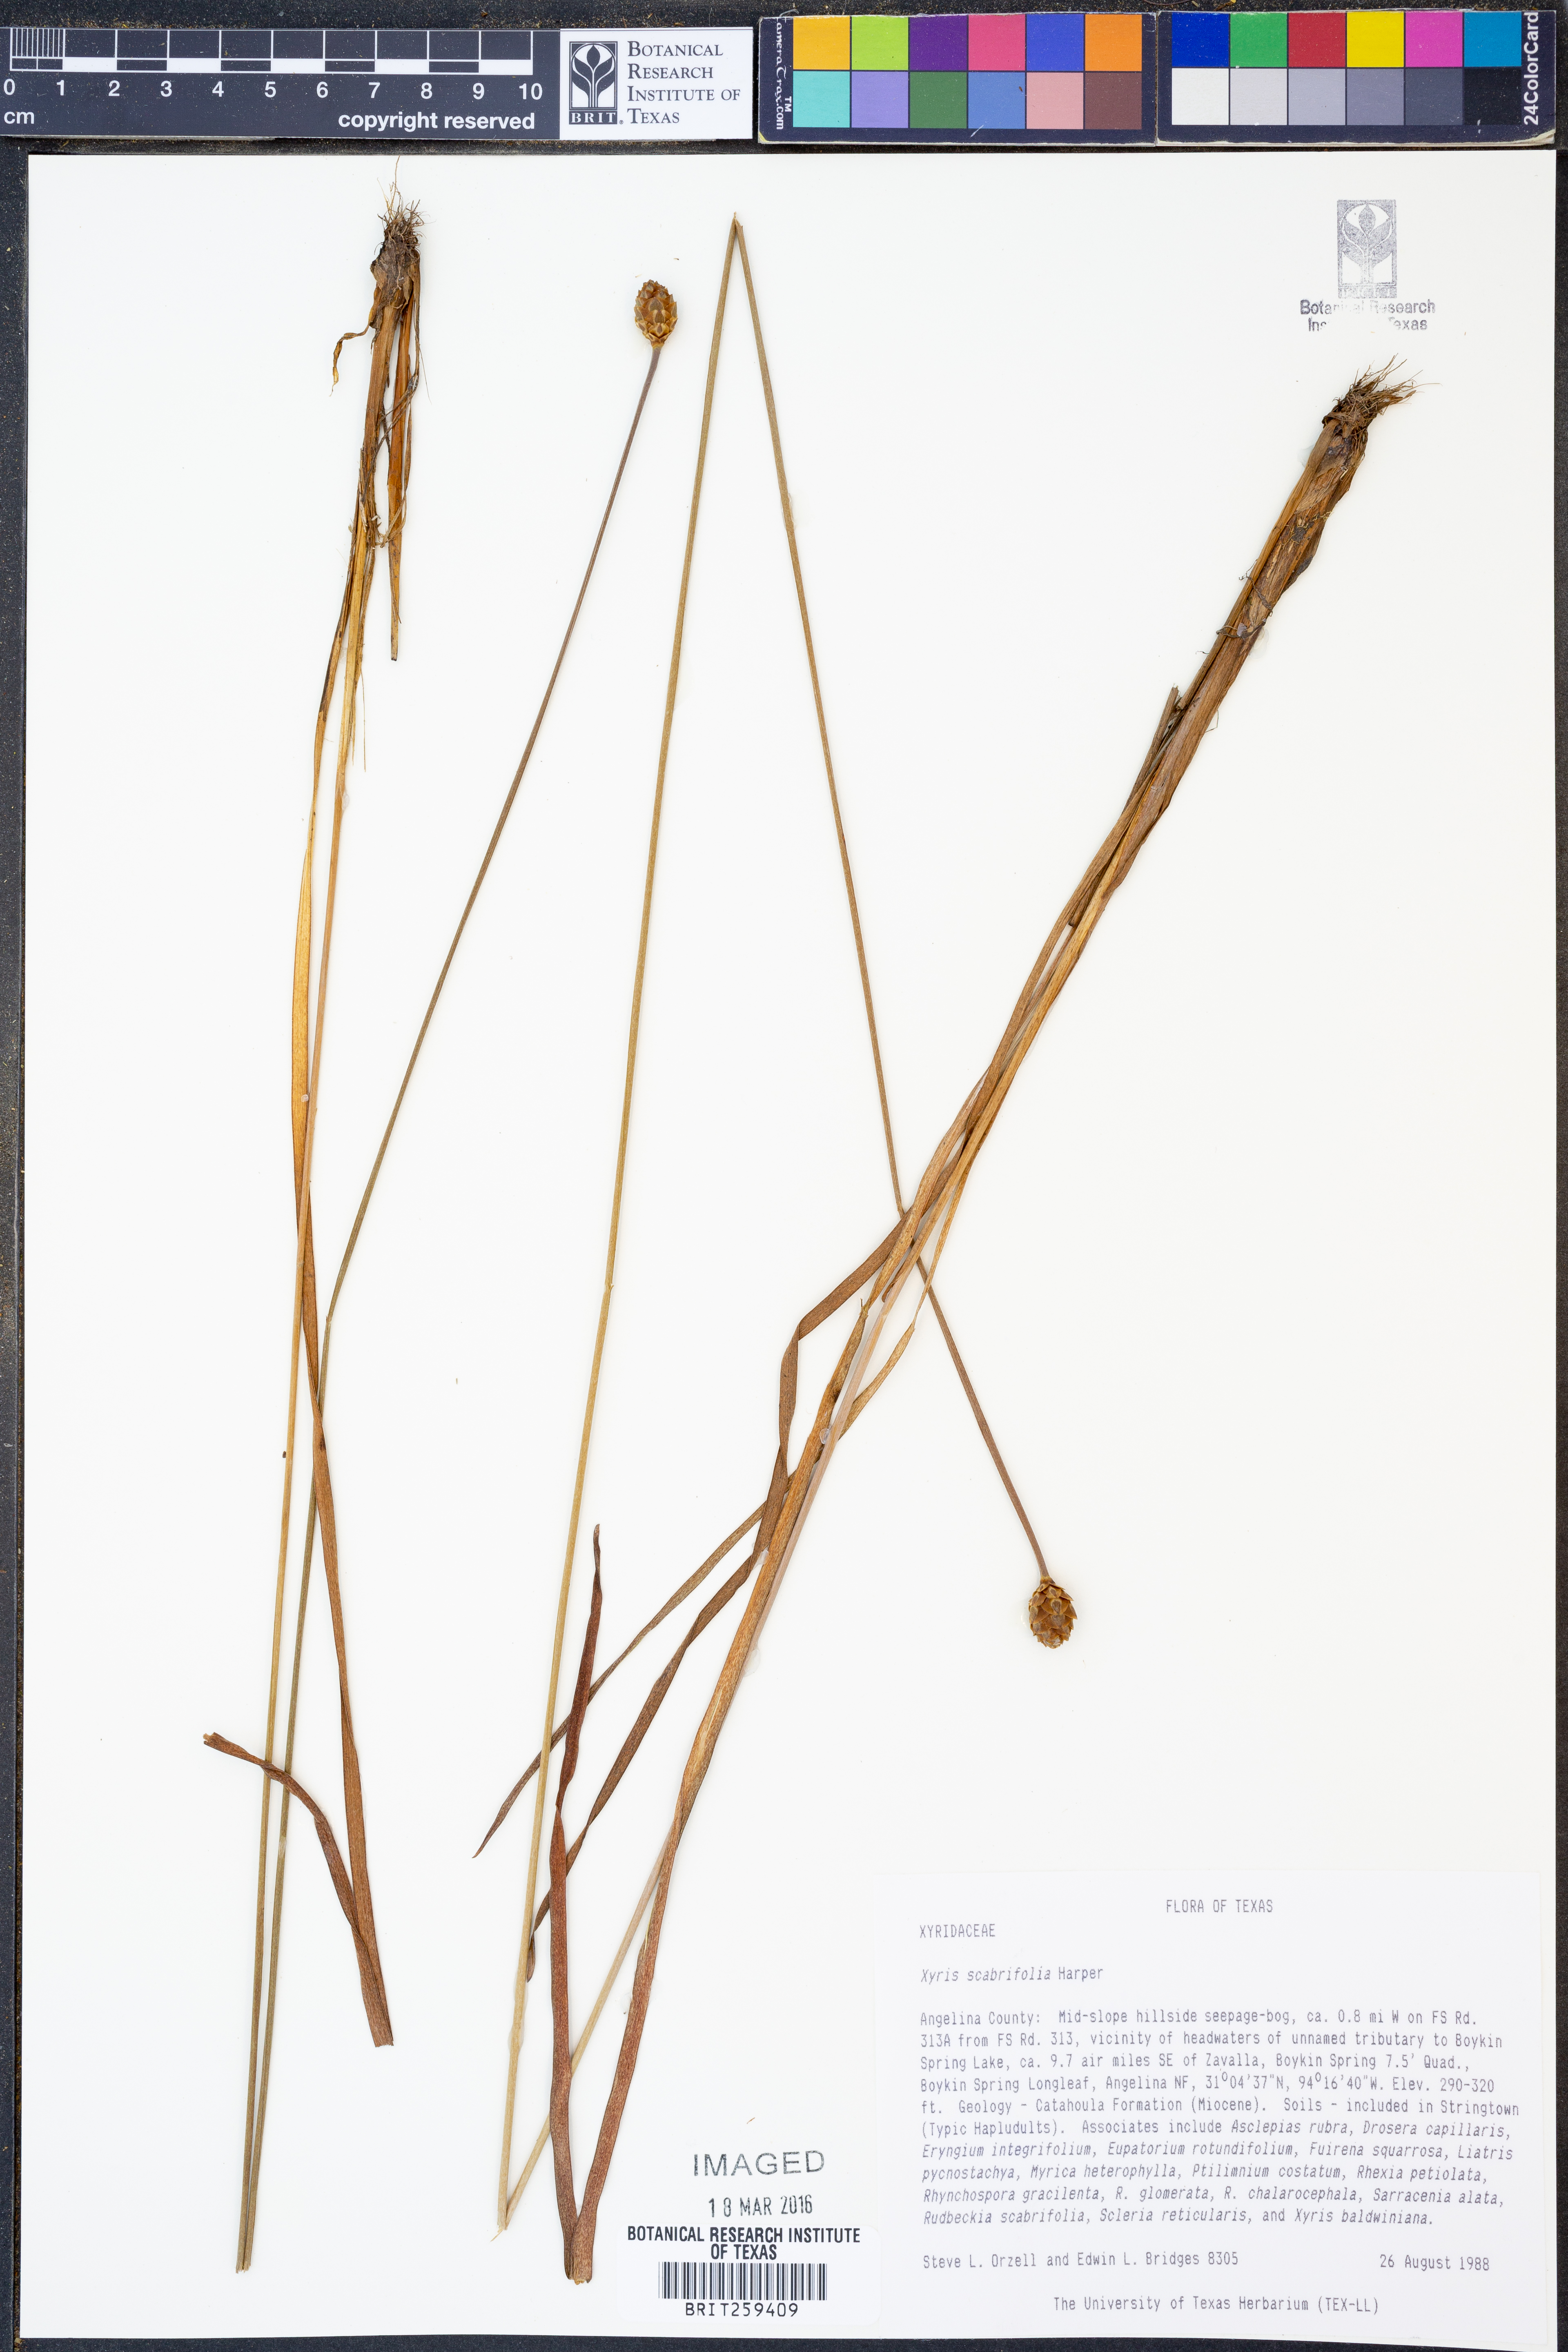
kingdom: Plantae
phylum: Tracheophyta
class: Liliopsida
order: Poales
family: Xyridaceae
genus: Xyris
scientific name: Xyris scabrifolia
